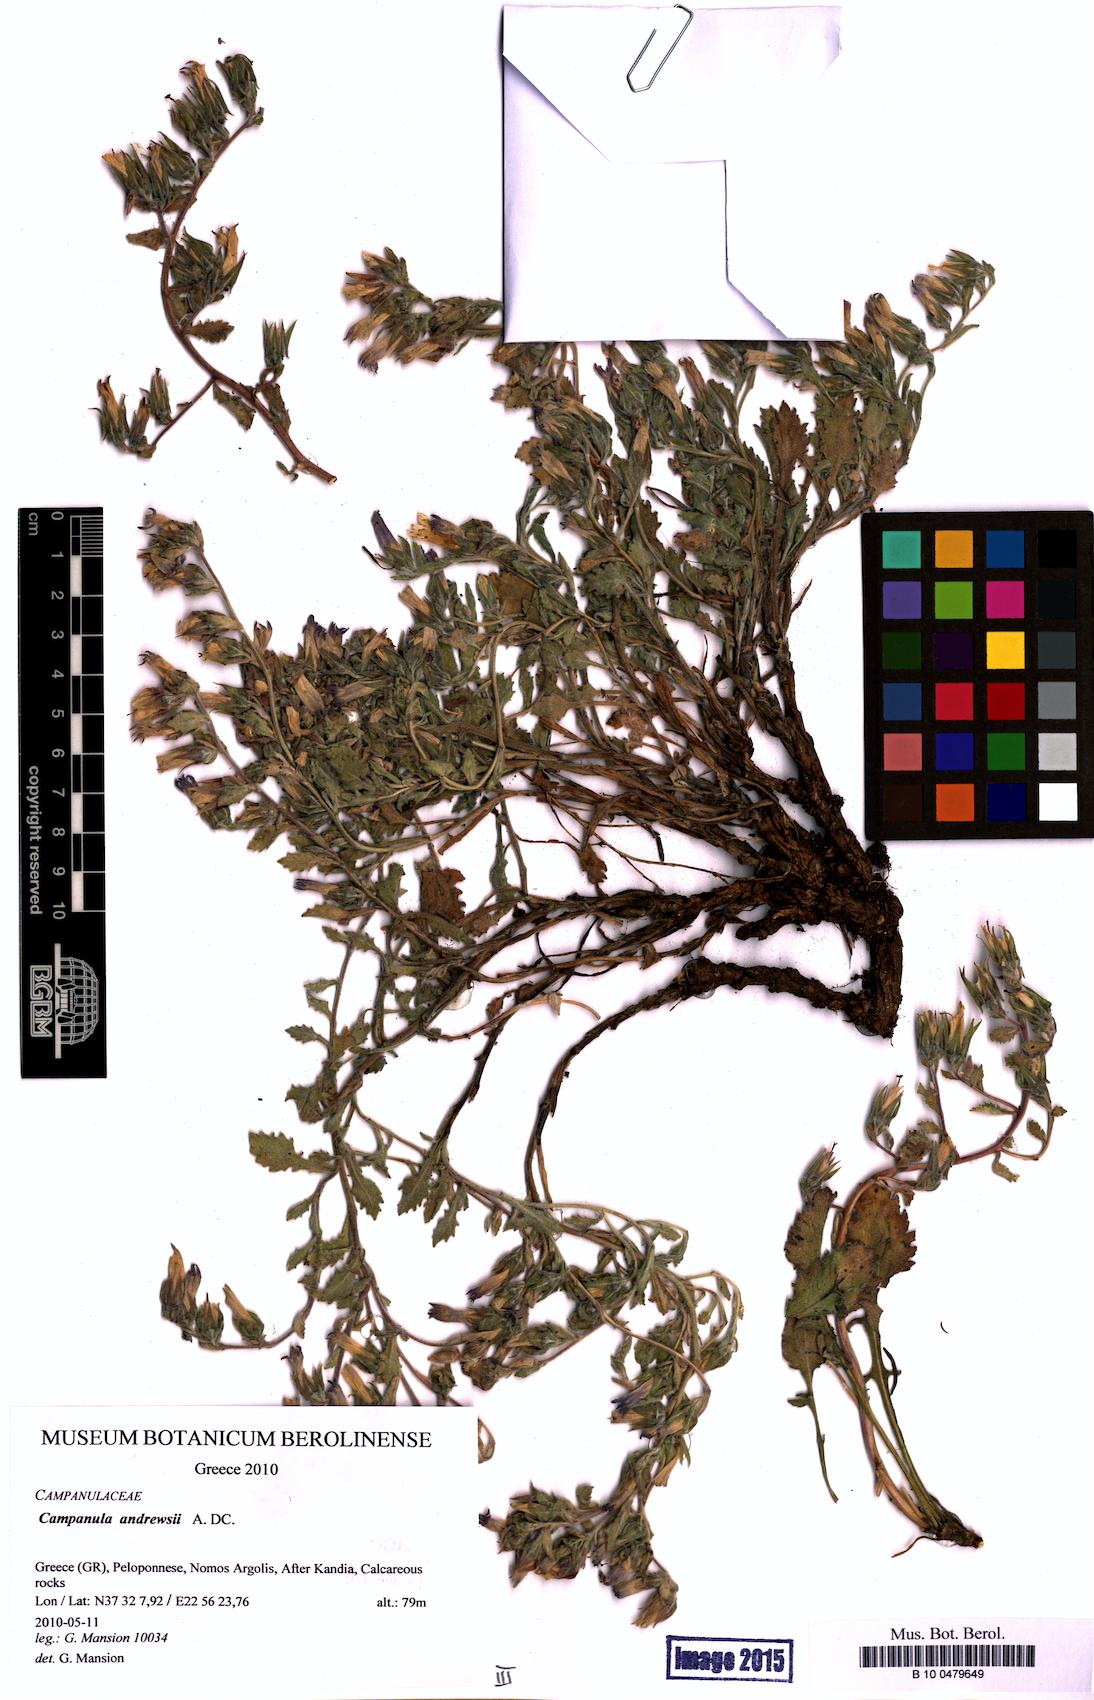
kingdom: Plantae
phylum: Tracheophyta
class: Magnoliopsida
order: Asterales
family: Campanulaceae
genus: Campanula
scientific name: Campanula andrewsii
